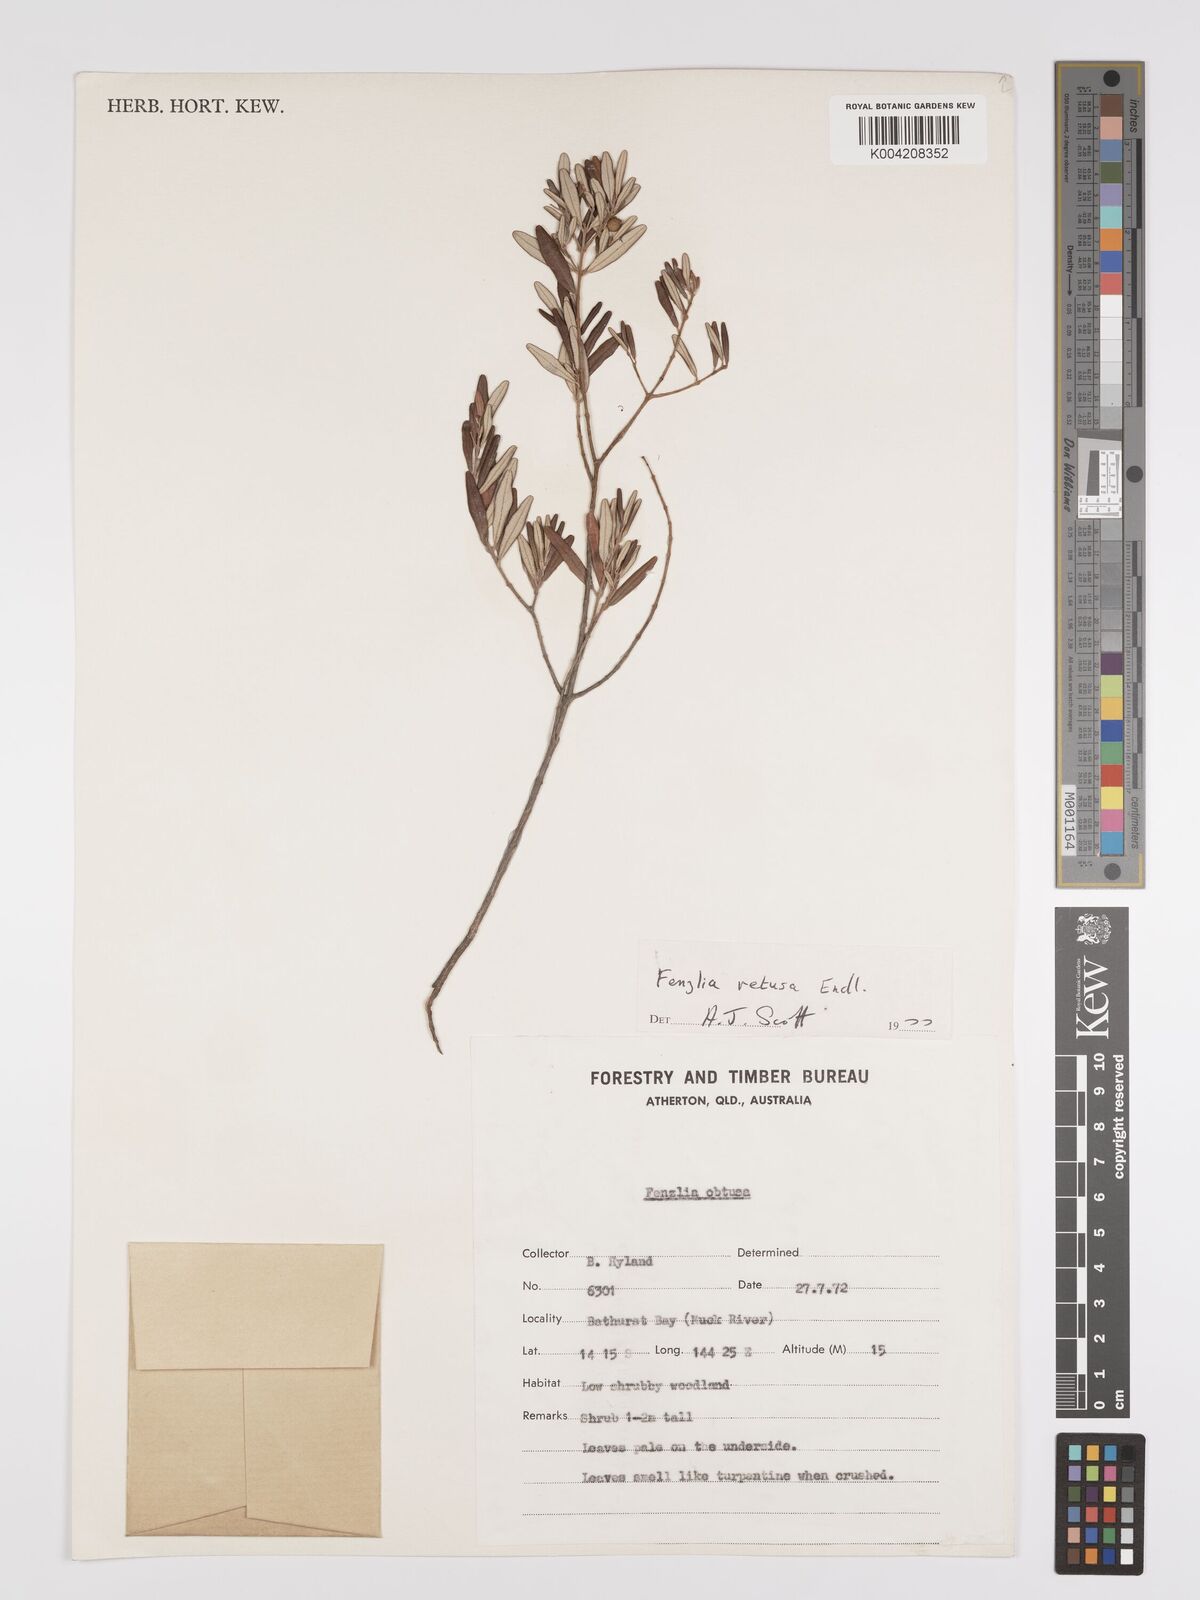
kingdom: Plantae
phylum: Tracheophyta
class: Magnoliopsida
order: Myrtales
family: Myrtaceae
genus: Lithomyrtus
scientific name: Lithomyrtus retusa
